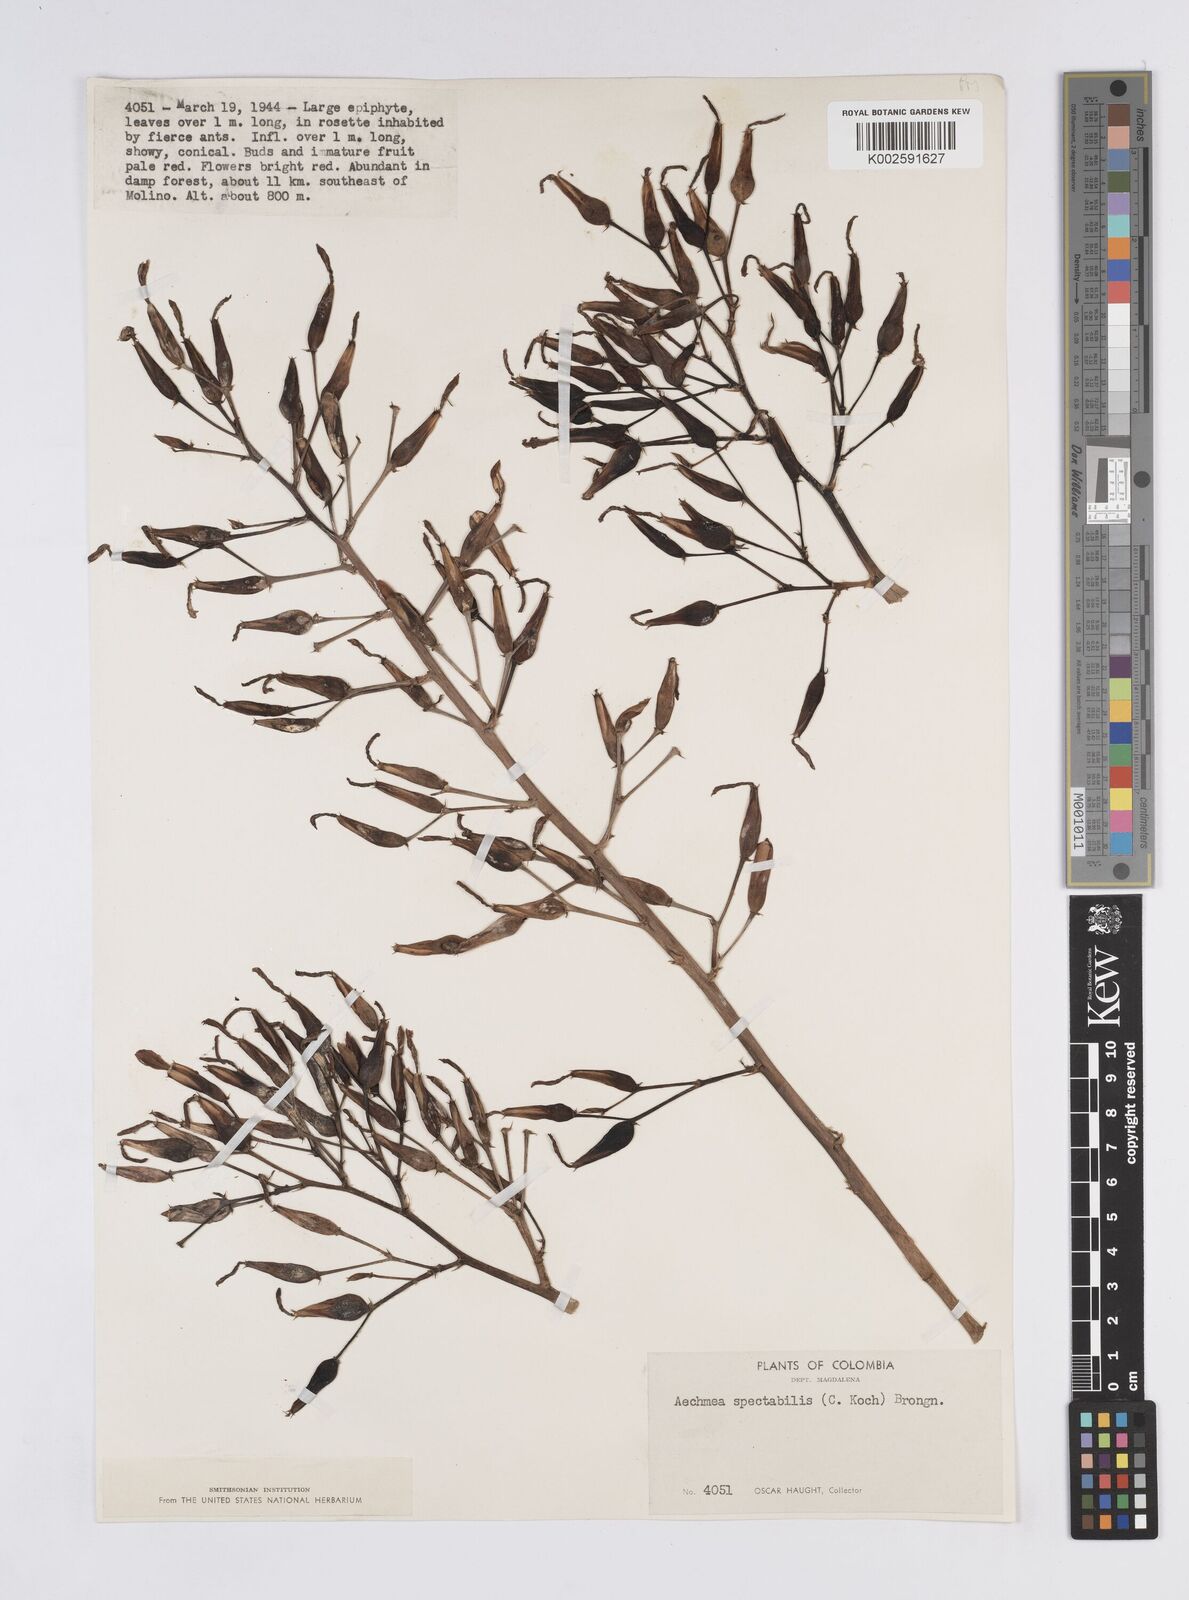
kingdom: Plantae
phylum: Tracheophyta
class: Liliopsida
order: Poales
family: Bromeliaceae
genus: Aechmea
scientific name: Aechmea spectabilis
